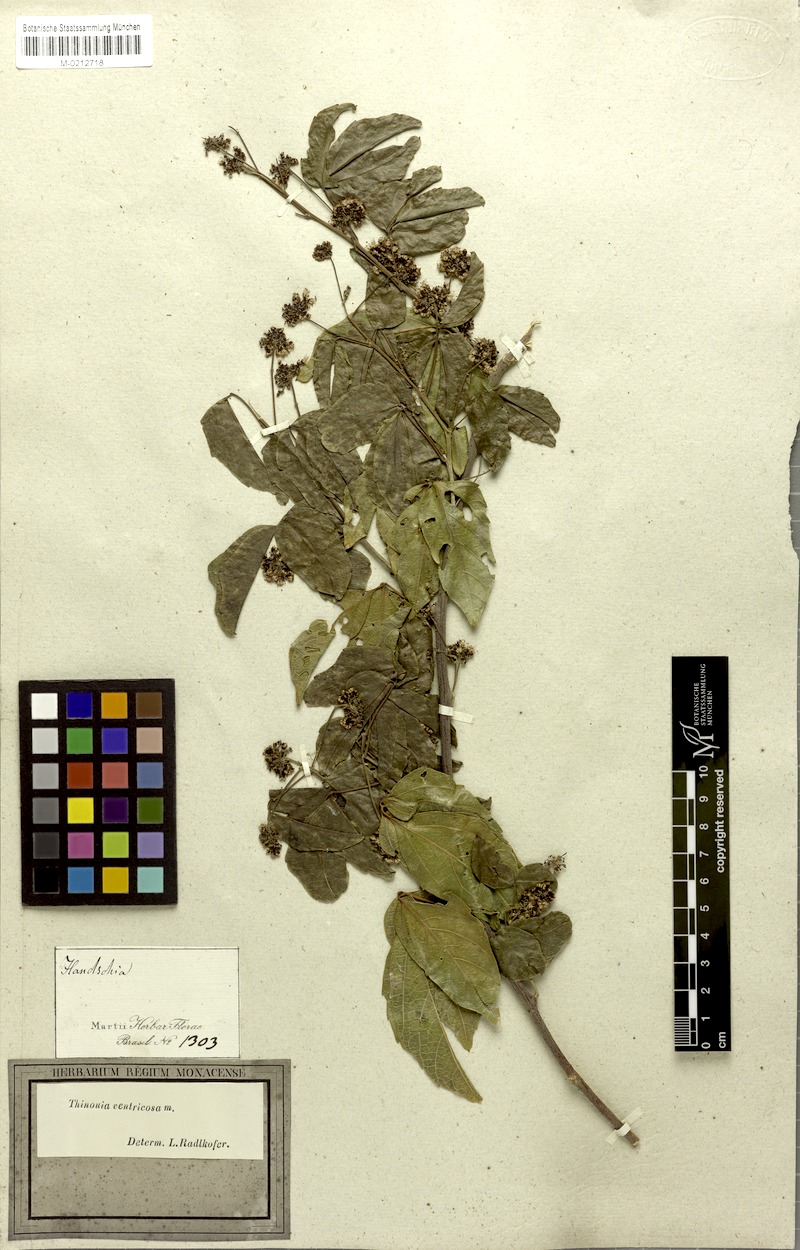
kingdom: Plantae
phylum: Tracheophyta
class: Magnoliopsida
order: Sapindales
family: Sapindaceae
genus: Thinouia
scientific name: Thinouia ventricosa
